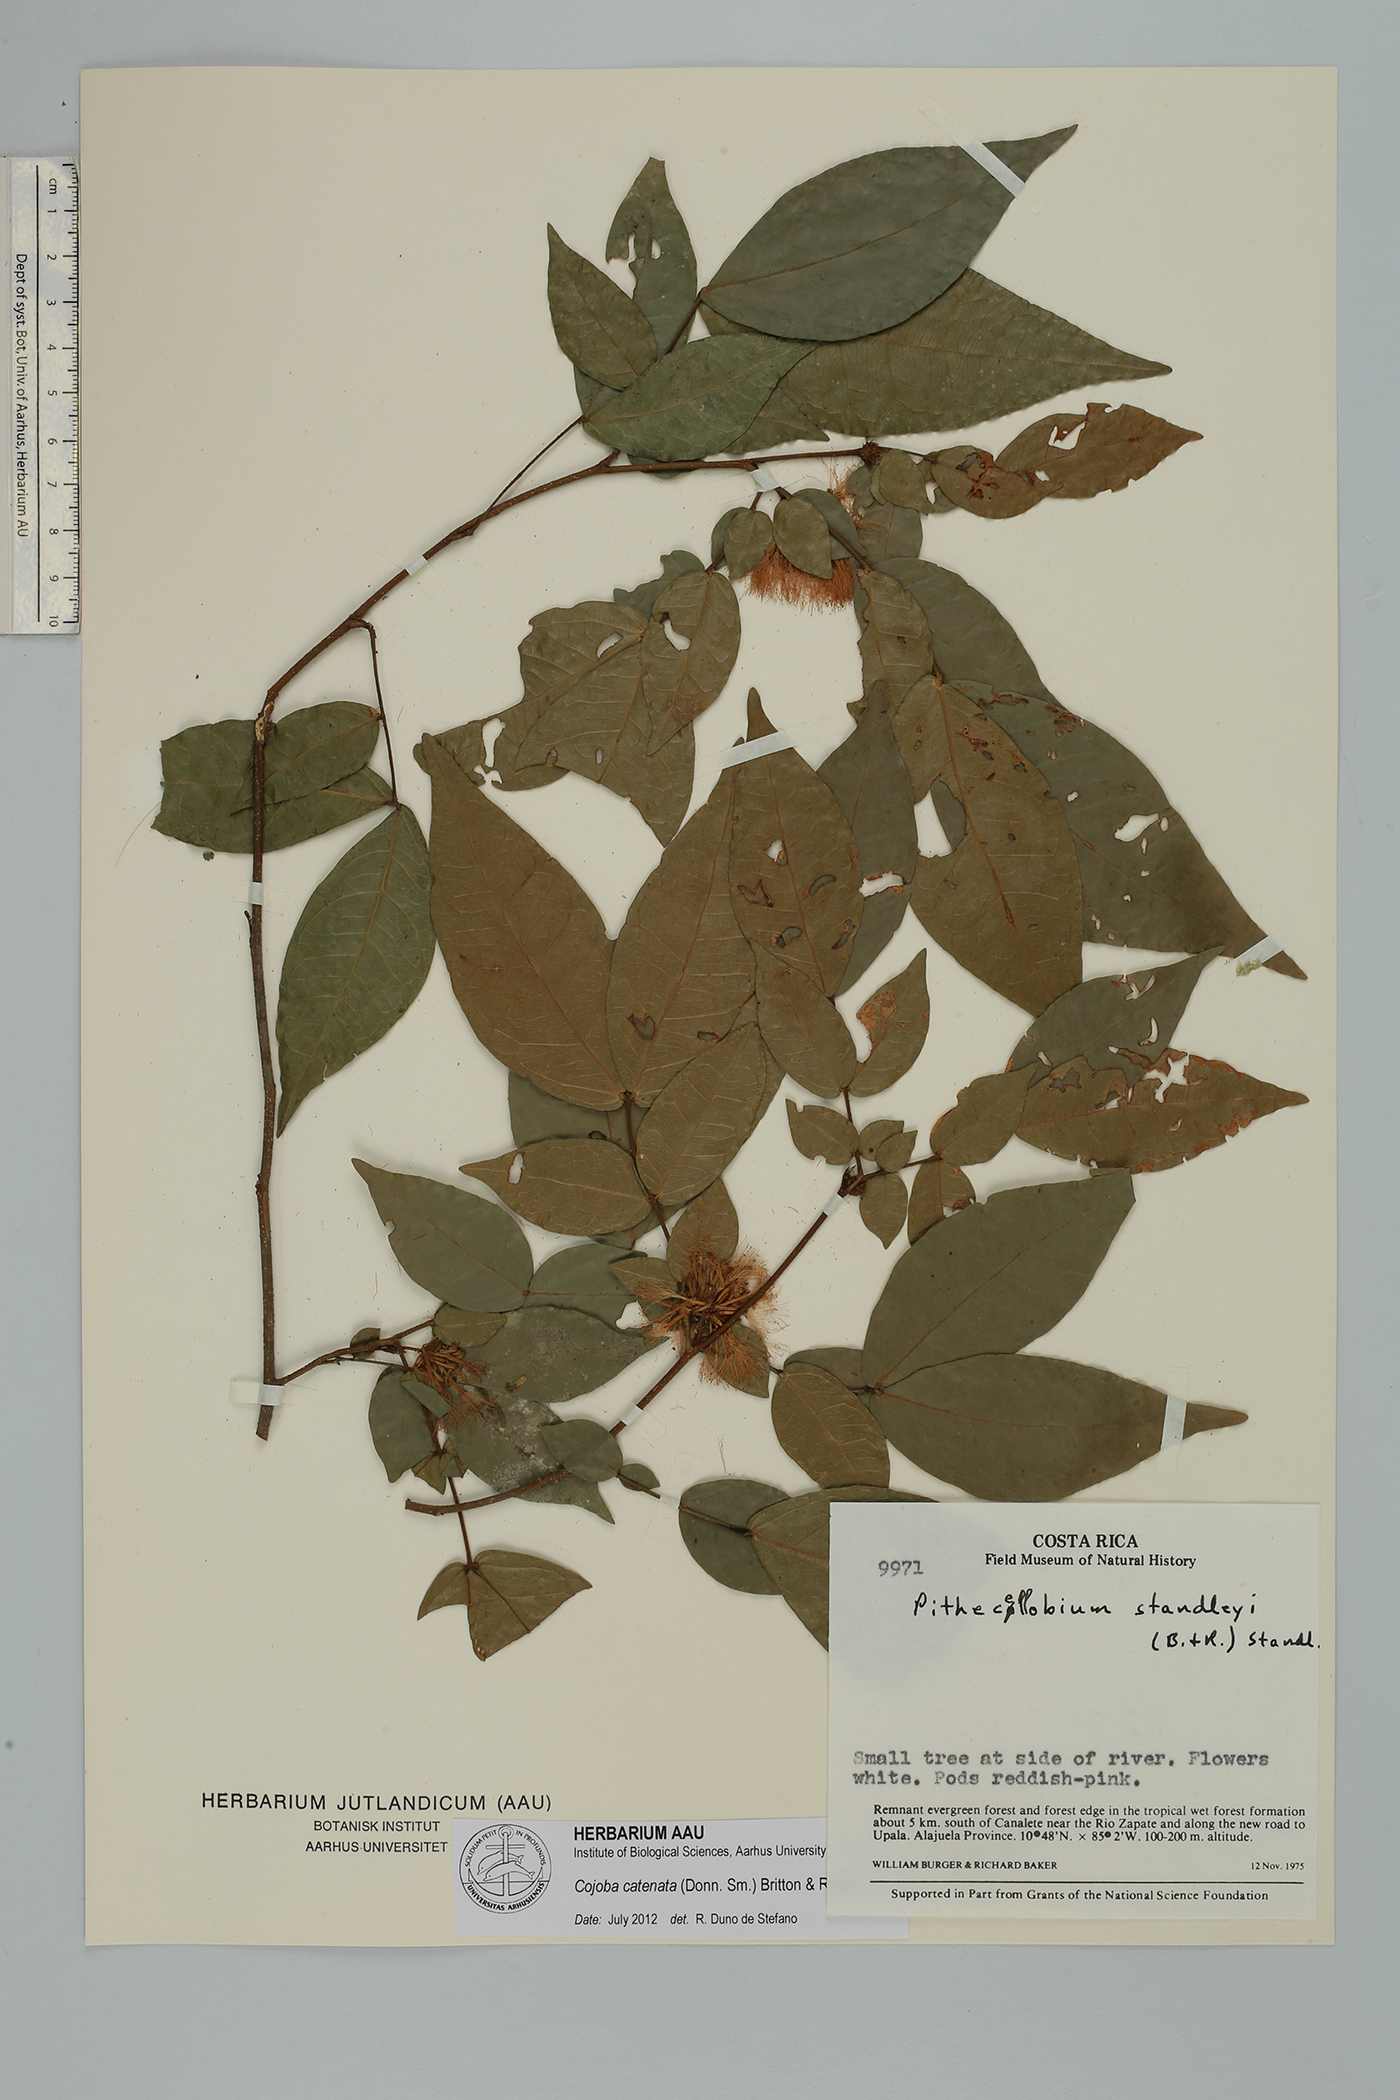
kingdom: Plantae
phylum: Tracheophyta
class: Magnoliopsida
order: Fabales
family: Fabaceae
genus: Cojoba
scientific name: Cojoba catenata
